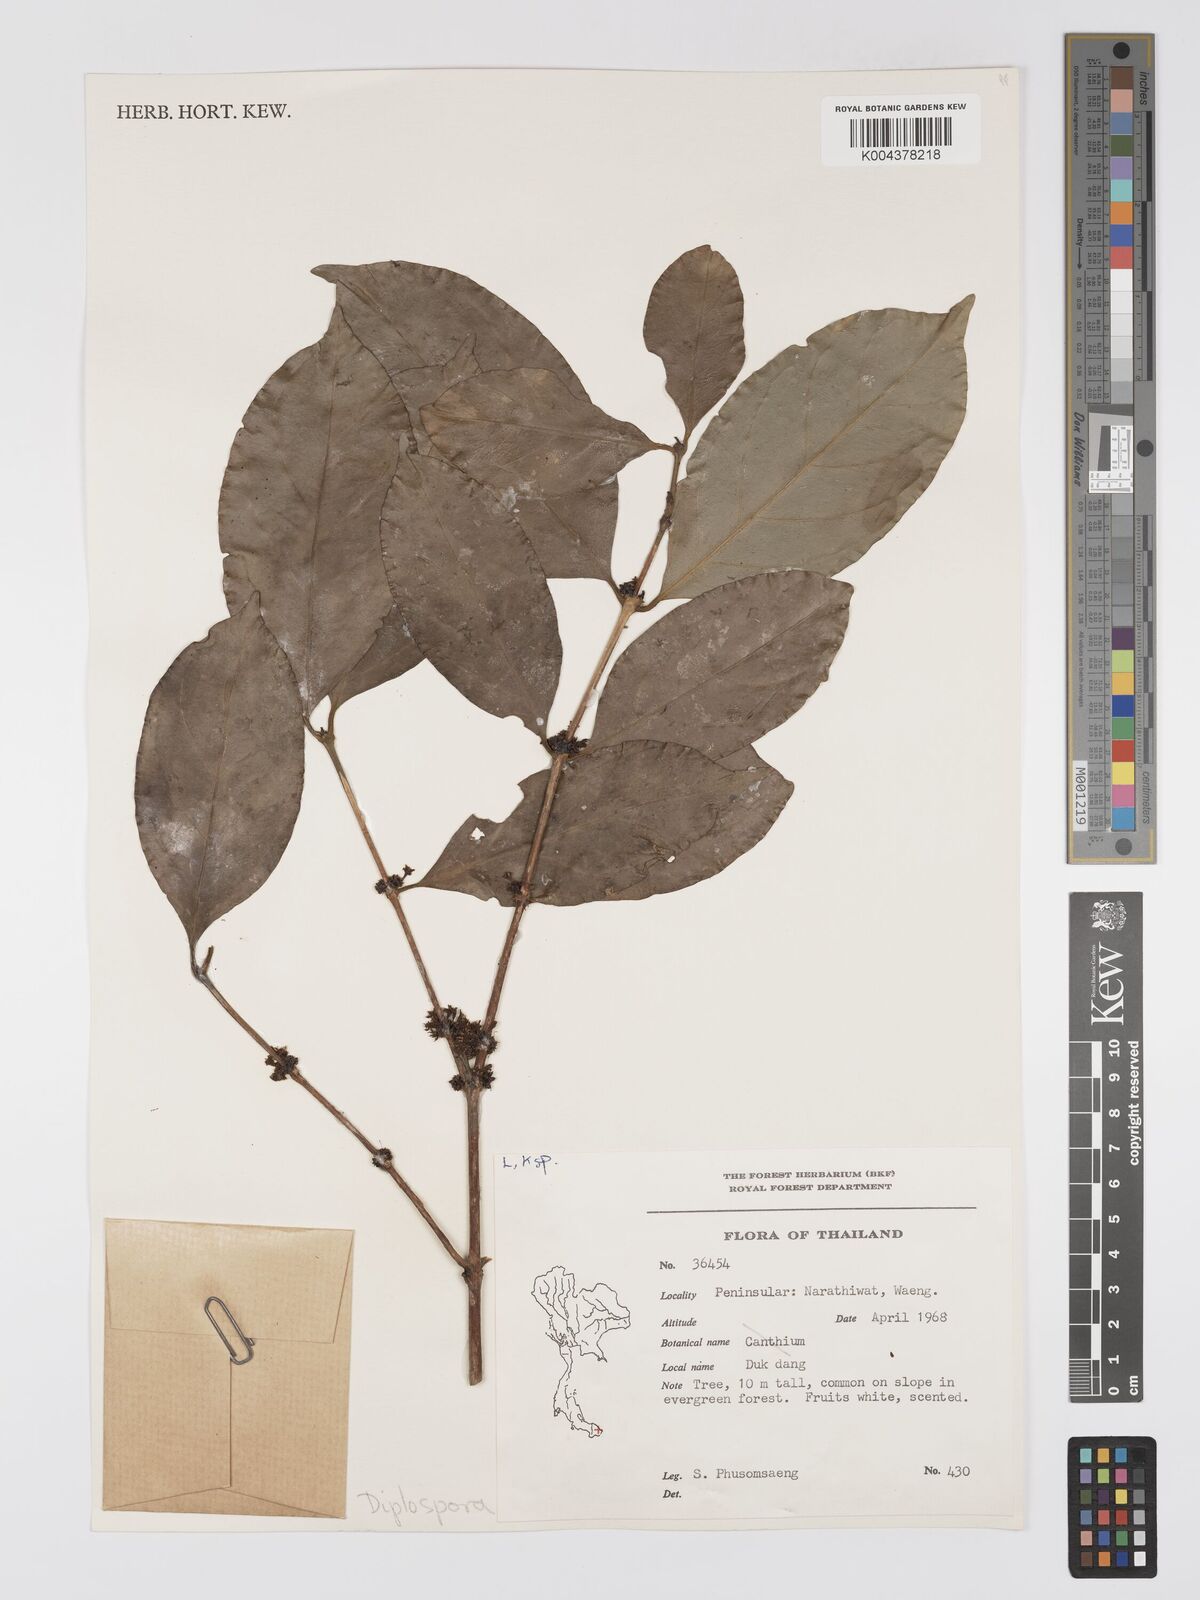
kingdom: Plantae
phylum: Tracheophyta
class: Magnoliopsida
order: Gentianales
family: Rubiaceae
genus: Diplospora
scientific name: Diplospora
